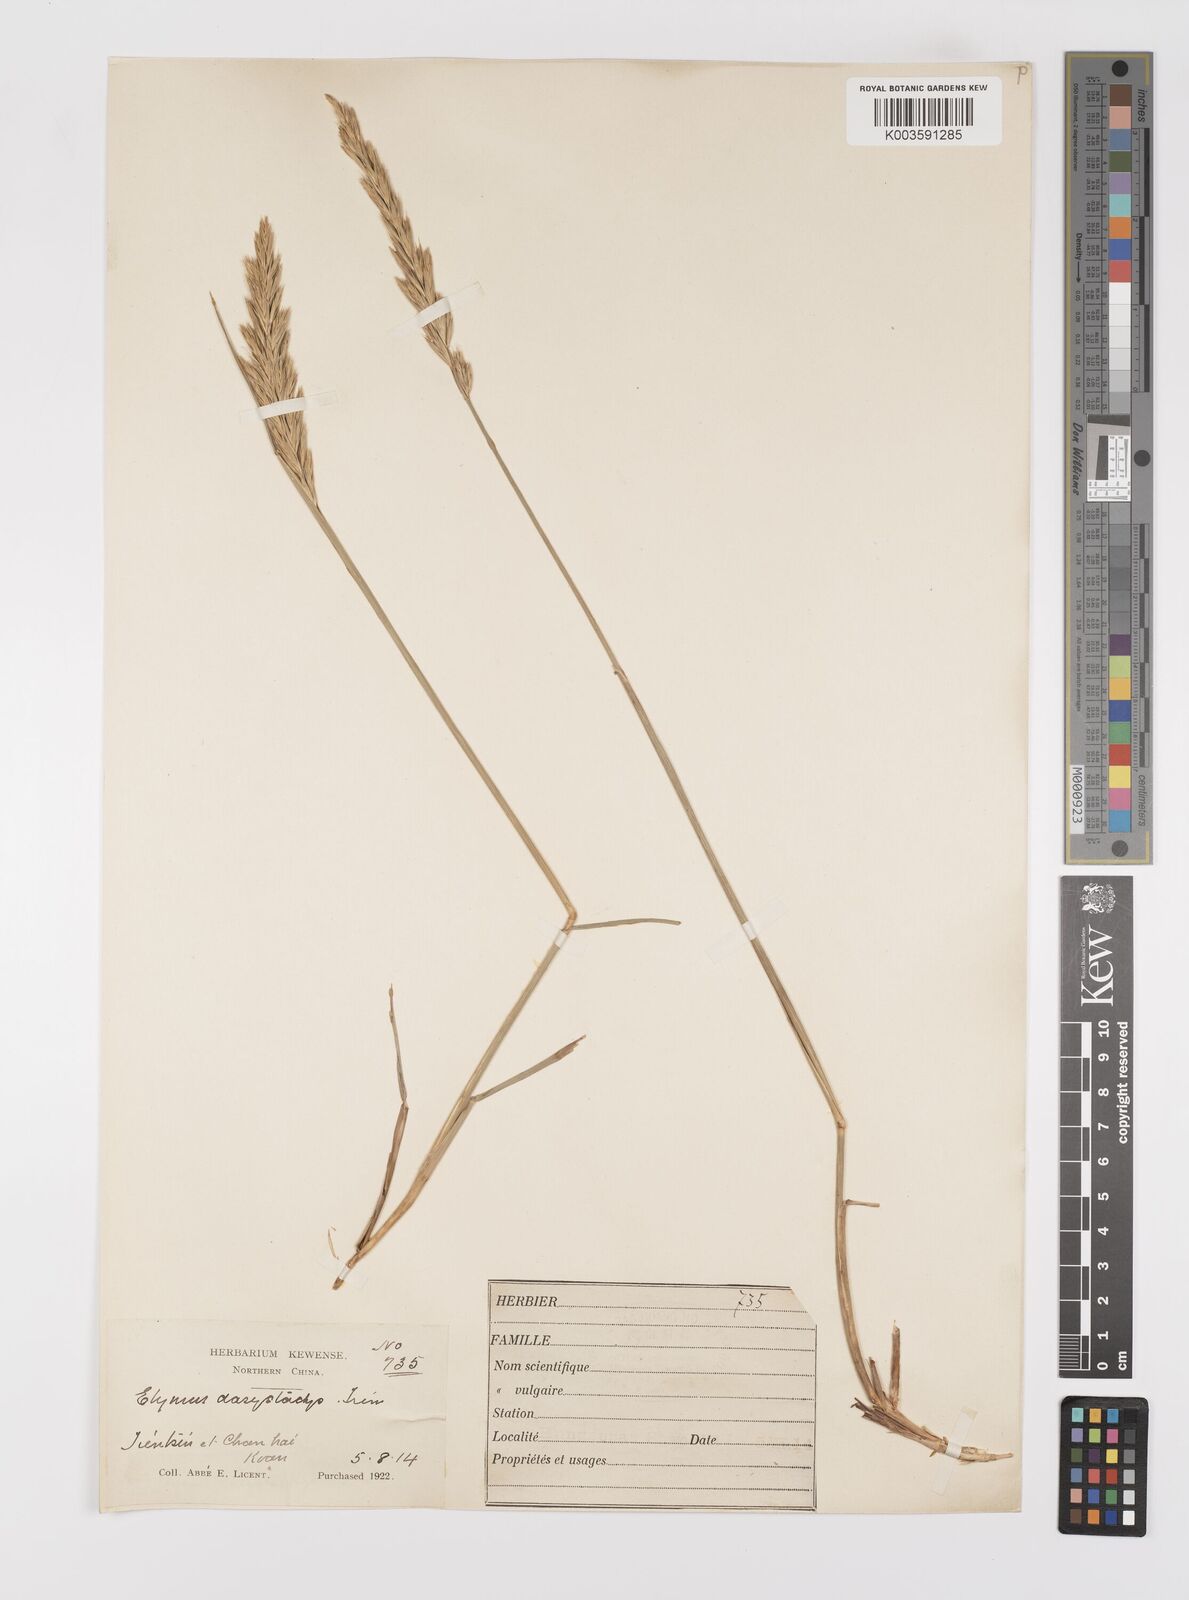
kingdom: Plantae
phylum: Tracheophyta
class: Liliopsida
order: Poales
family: Poaceae
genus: Leymus
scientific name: Leymus secalinus
